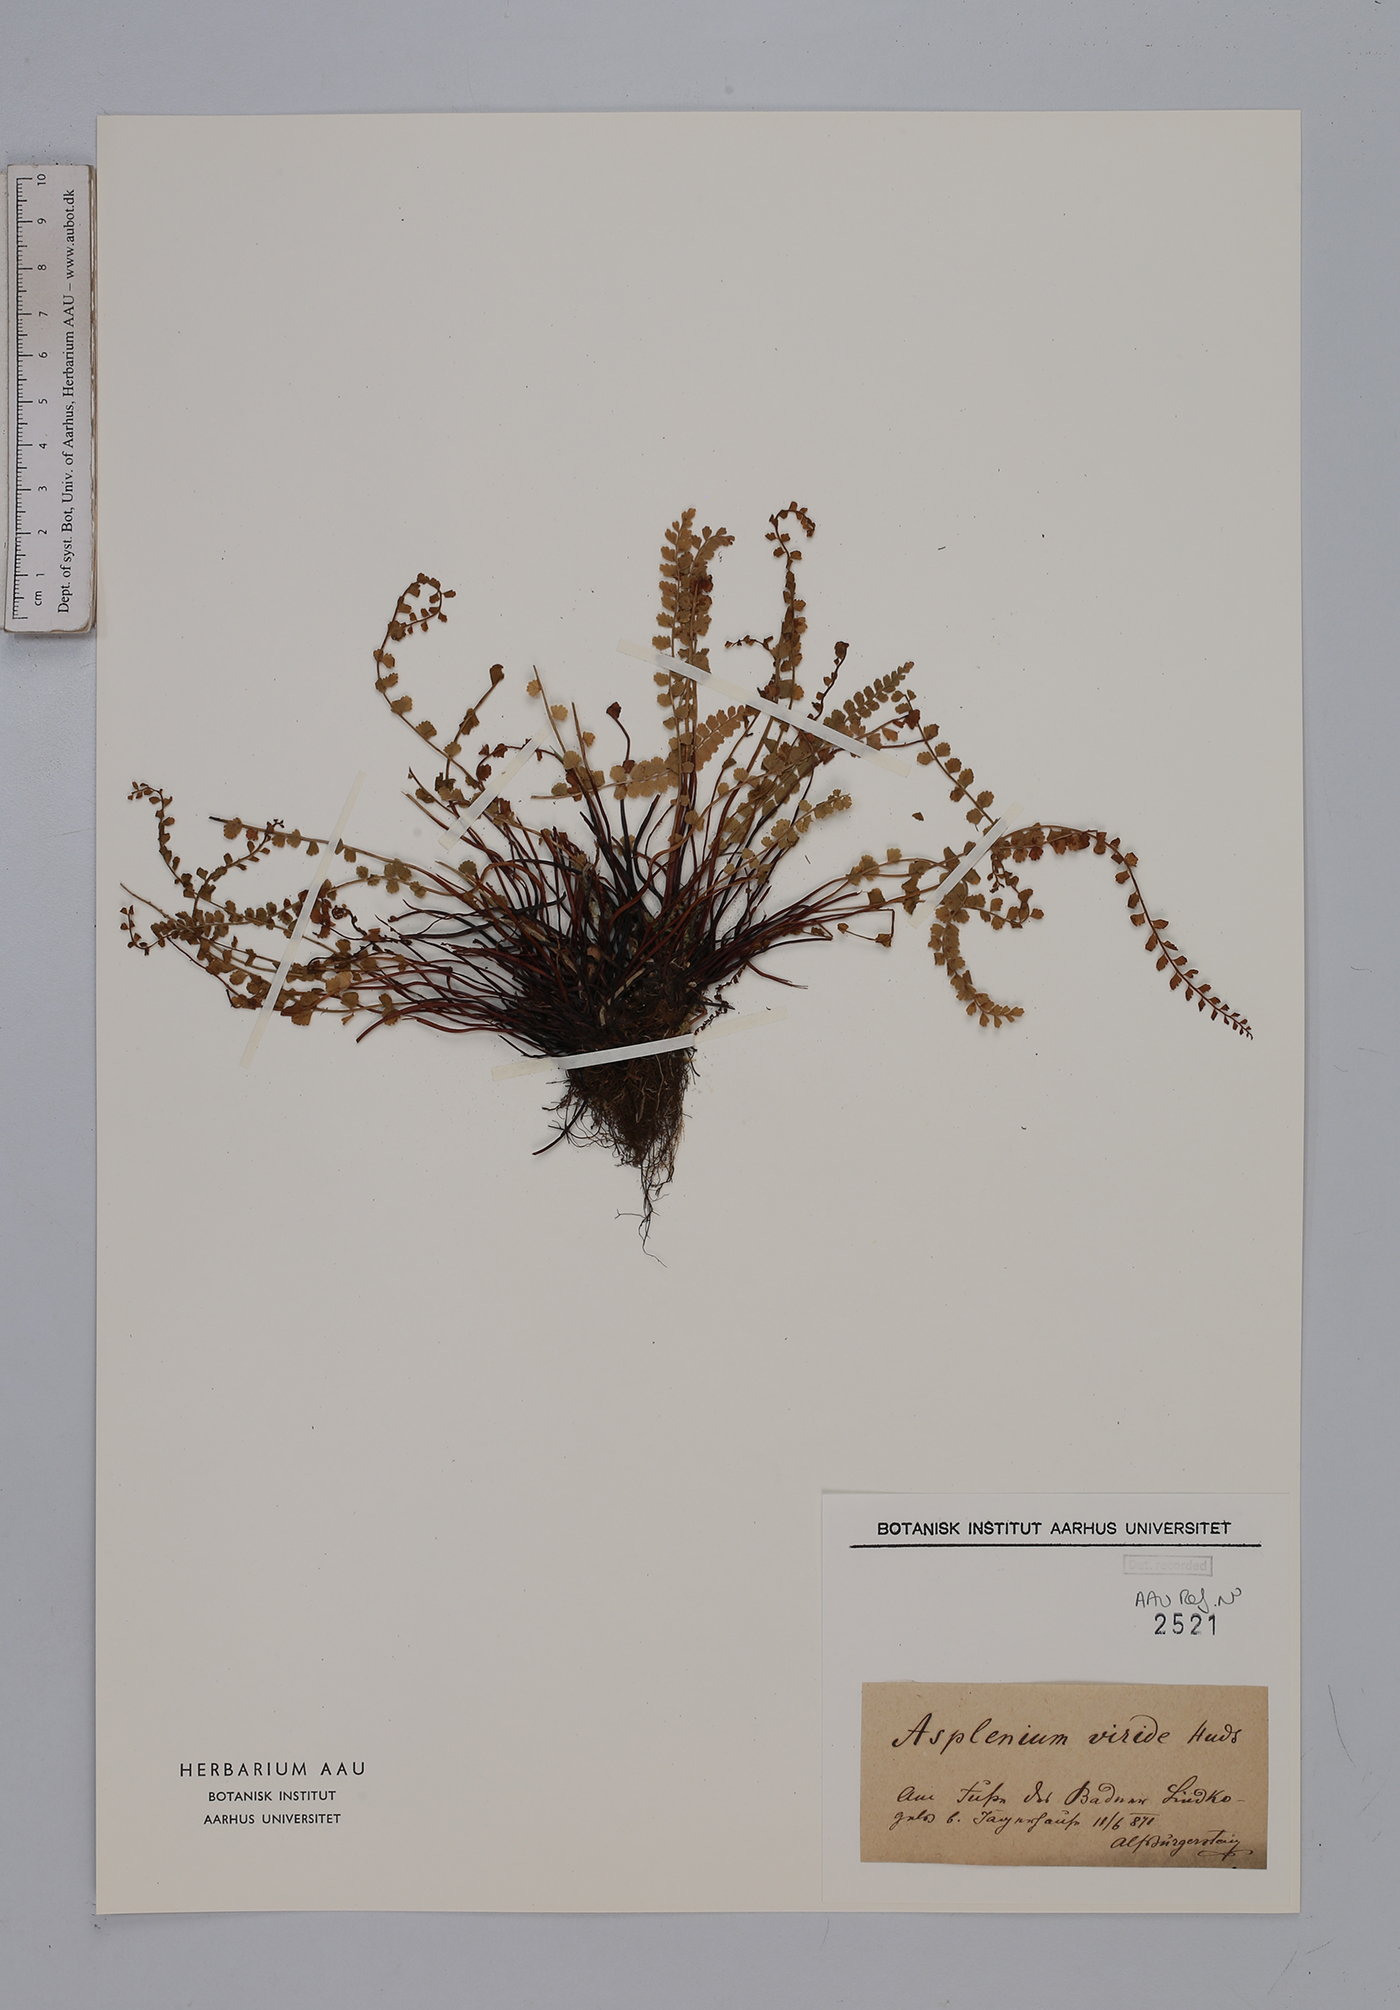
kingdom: Plantae
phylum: Tracheophyta
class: Polypodiopsida
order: Polypodiales
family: Aspleniaceae
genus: Asplenium
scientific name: Asplenium viride
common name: Green spleenwort
